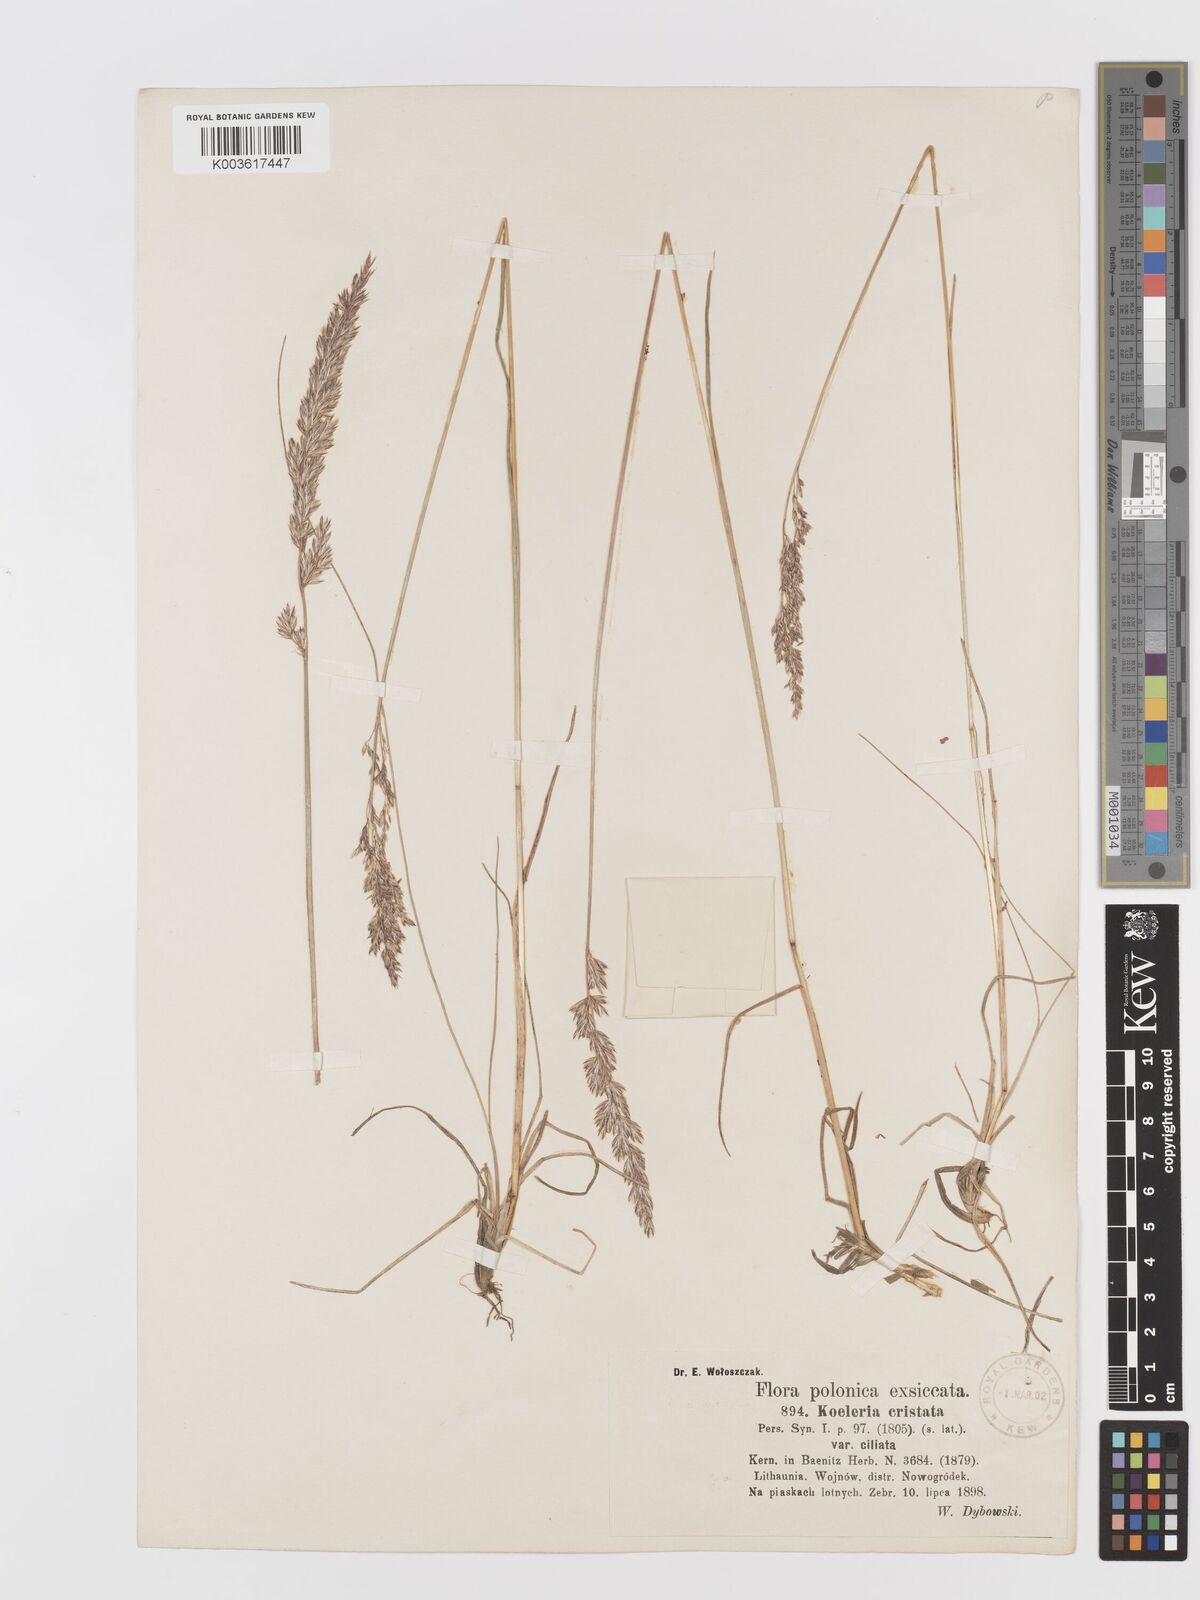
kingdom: Plantae
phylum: Tracheophyta
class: Liliopsida
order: Poales
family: Poaceae
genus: Koeleria
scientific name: Koeleria pyramidata
